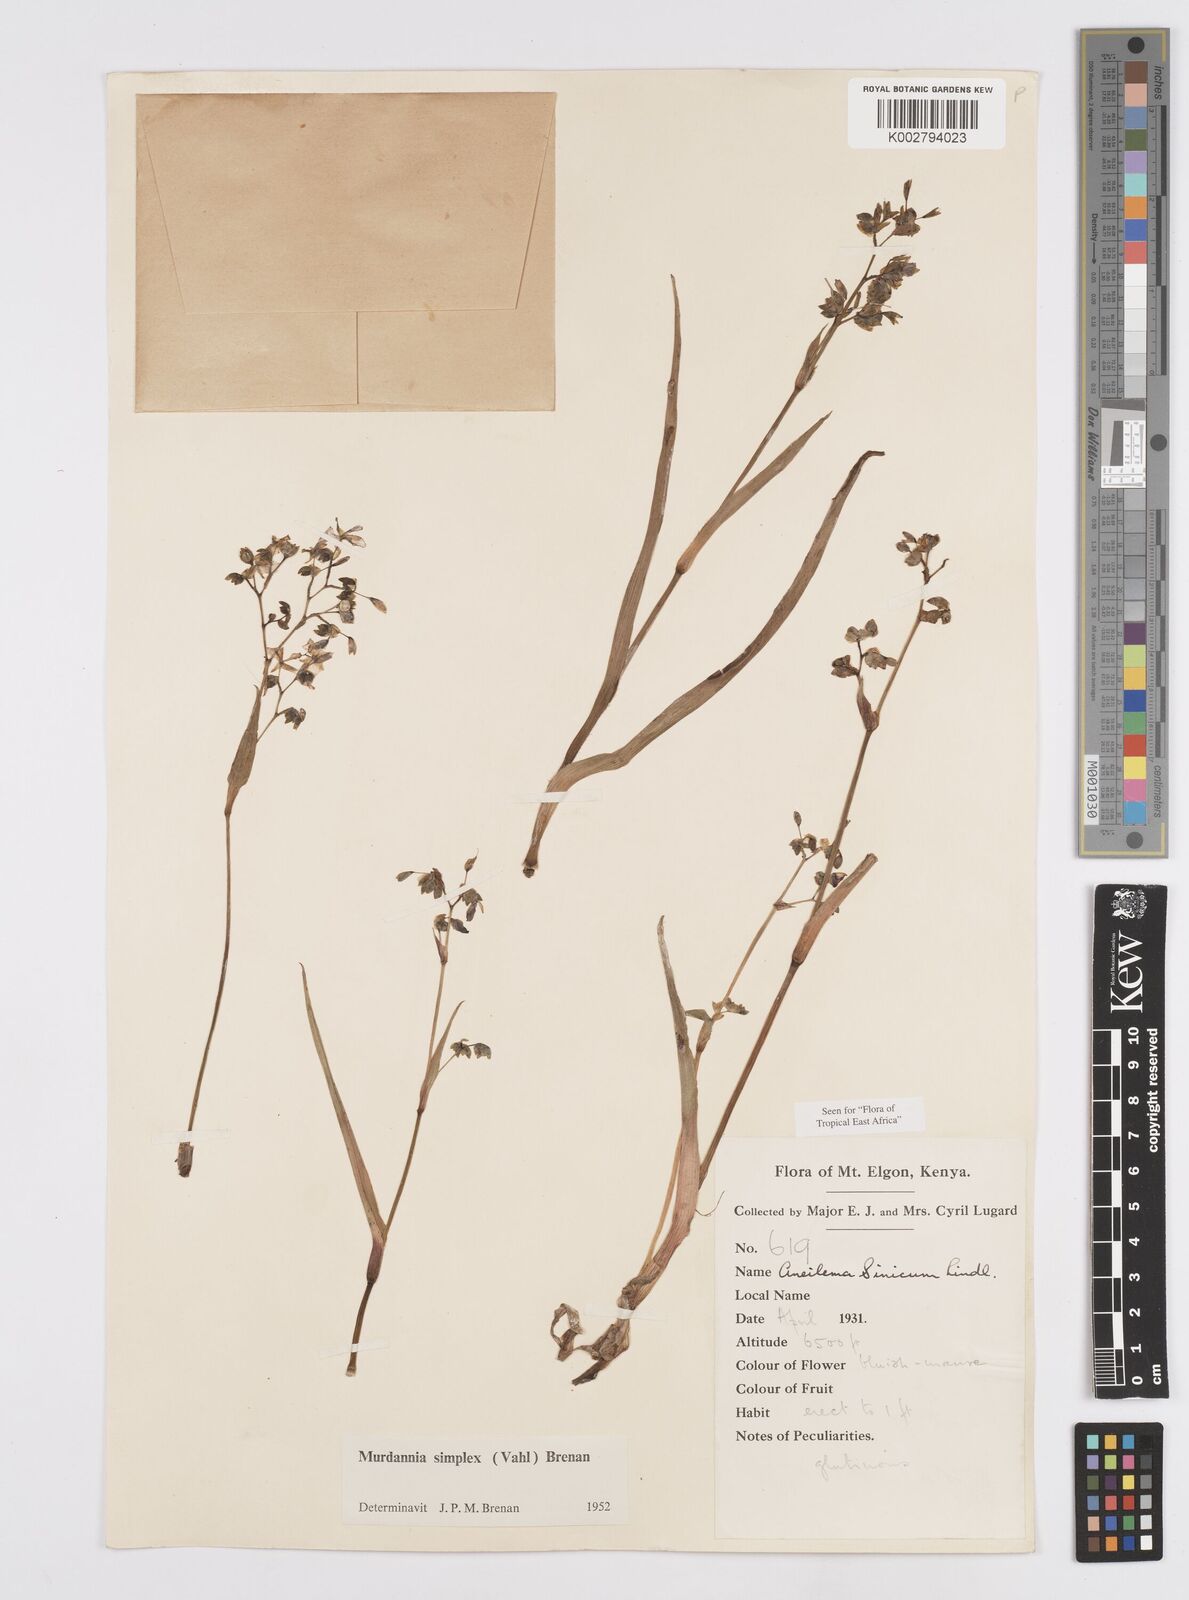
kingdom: Plantae
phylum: Tracheophyta
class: Liliopsida
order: Commelinales
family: Commelinaceae
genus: Murdannia
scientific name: Murdannia simplex
